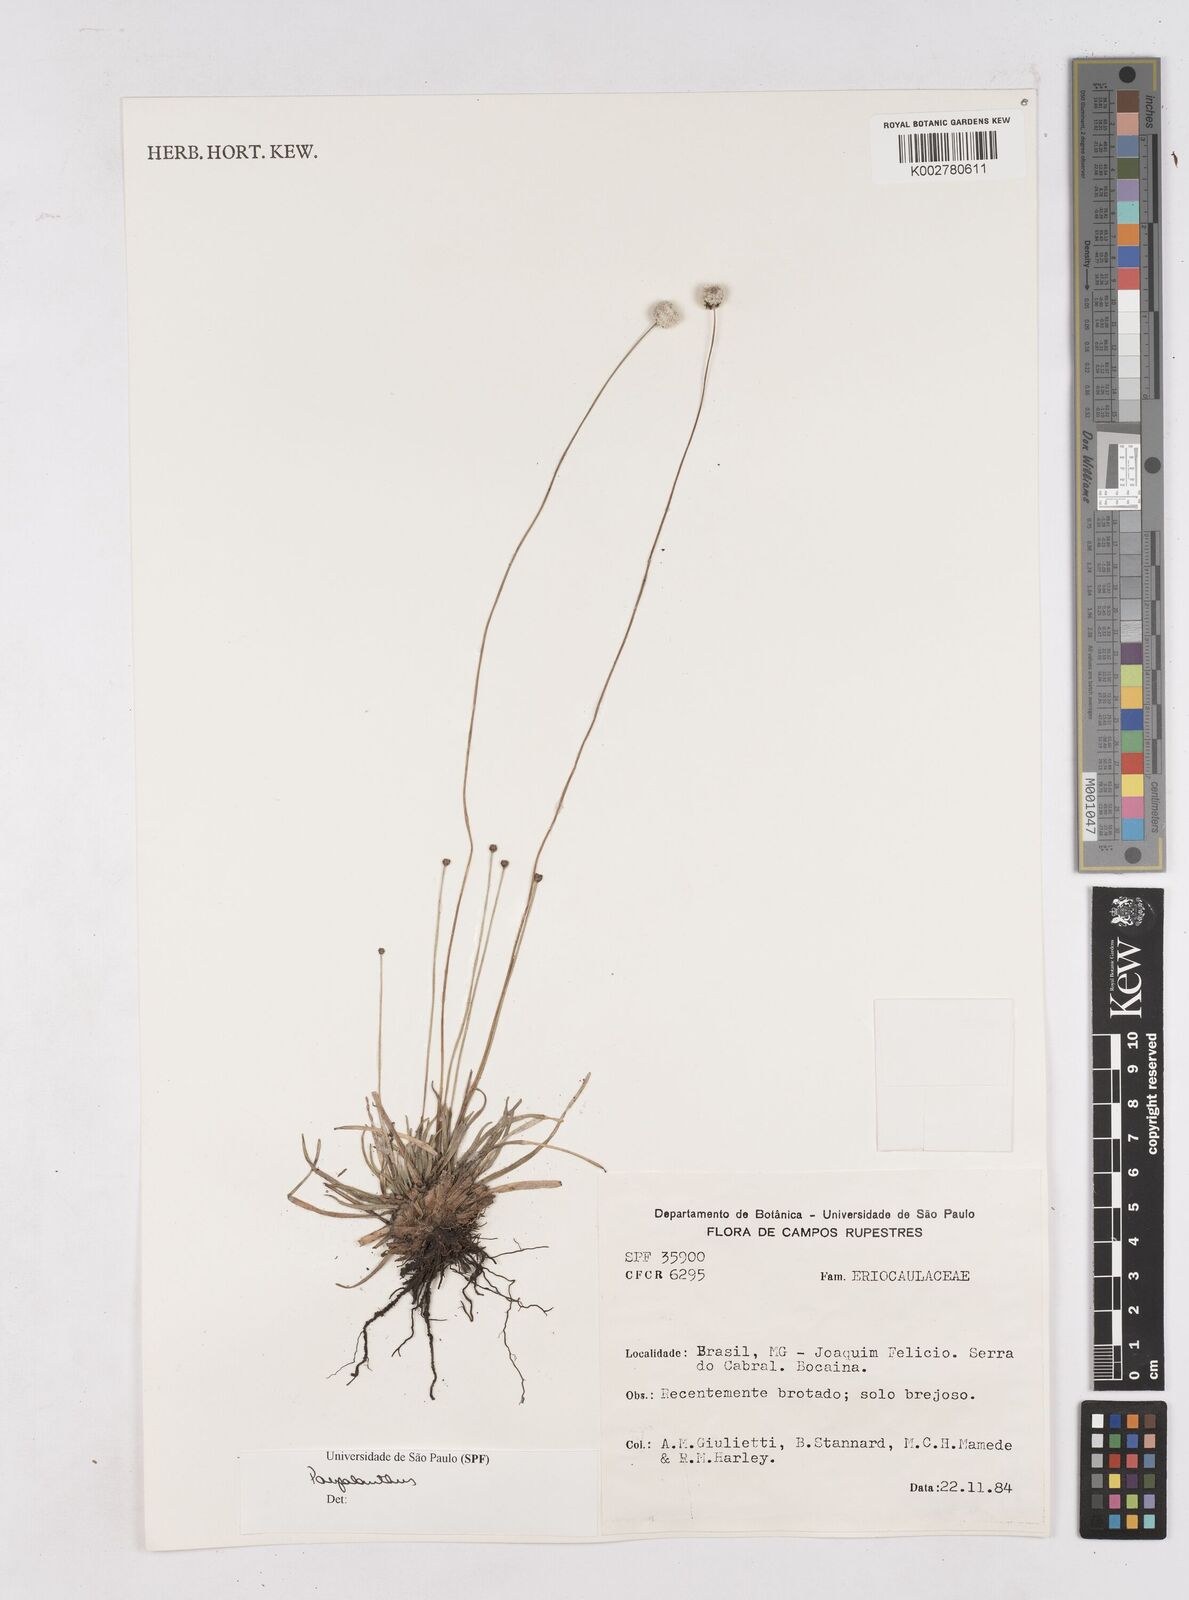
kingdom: Plantae
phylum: Tracheophyta
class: Liliopsida
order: Poales
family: Eriocaulaceae
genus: Paepalanthus
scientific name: Paepalanthus
